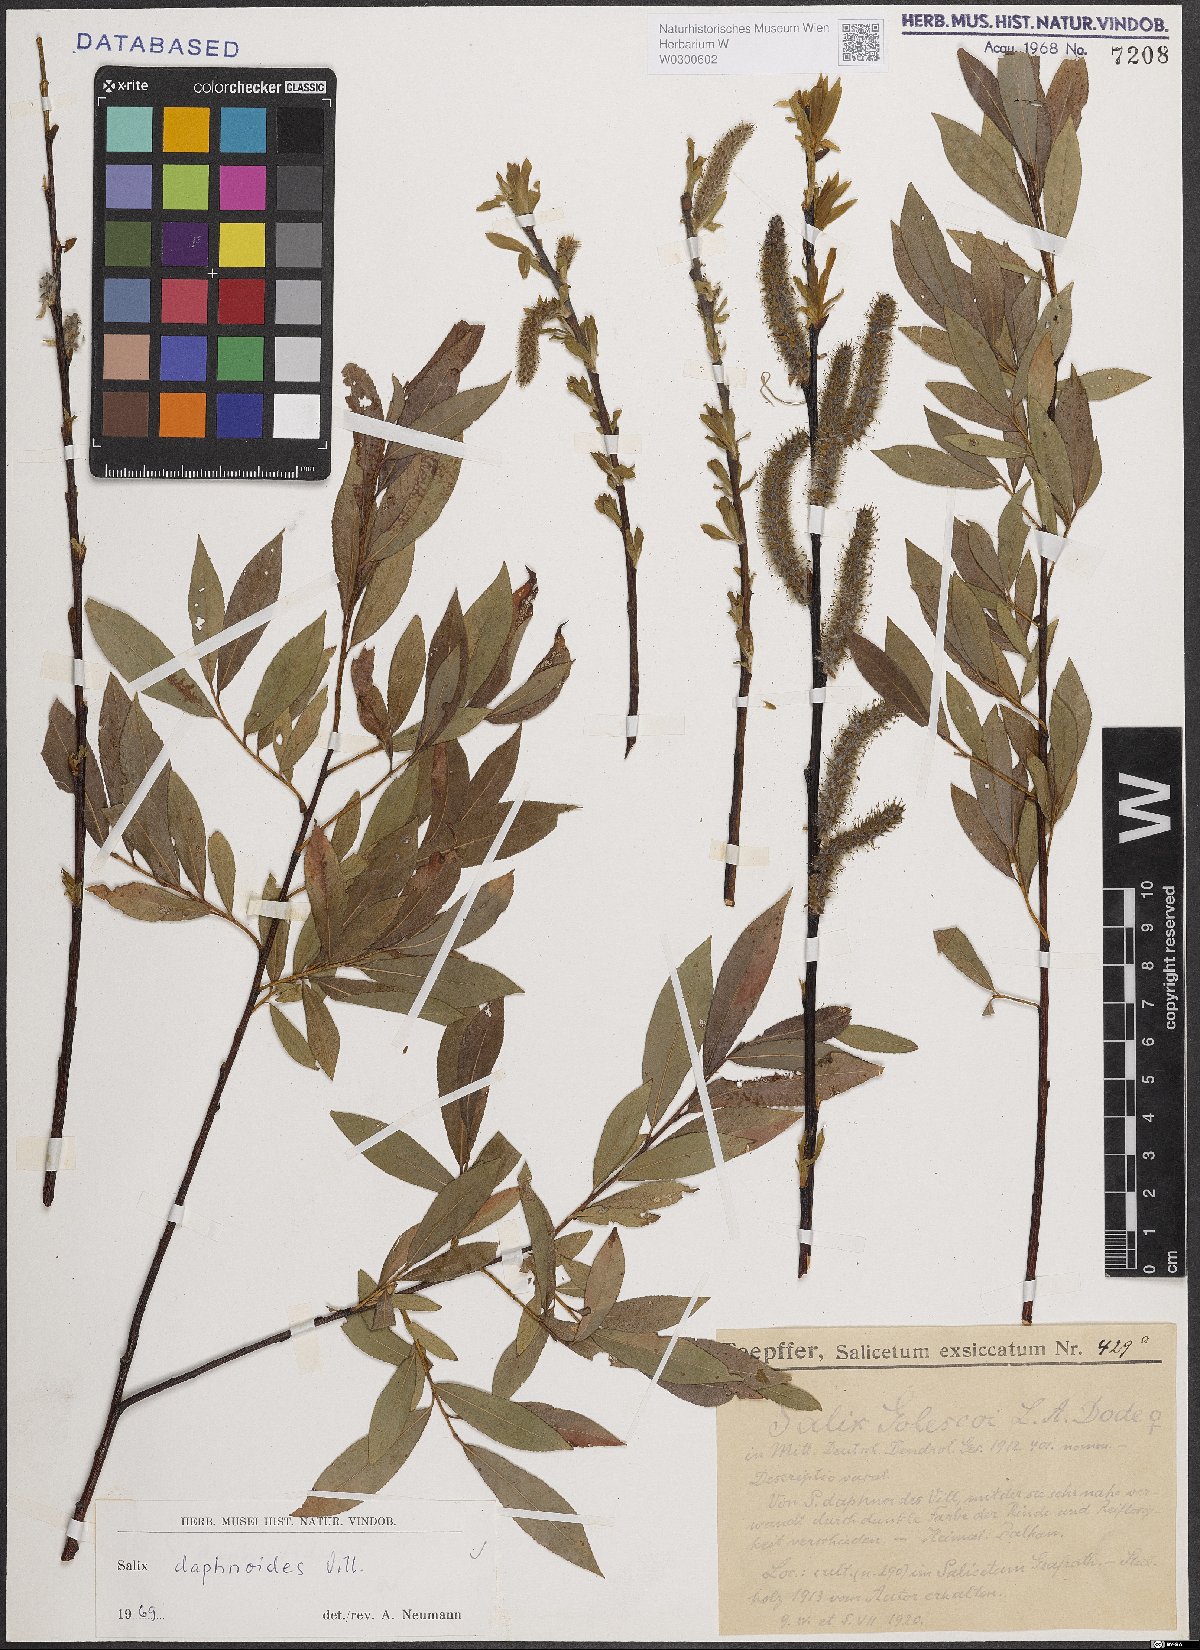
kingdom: Plantae
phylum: Tracheophyta
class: Magnoliopsida
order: Malpighiales
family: Salicaceae
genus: Salix
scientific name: Salix daphnoides
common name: European violet-willow
